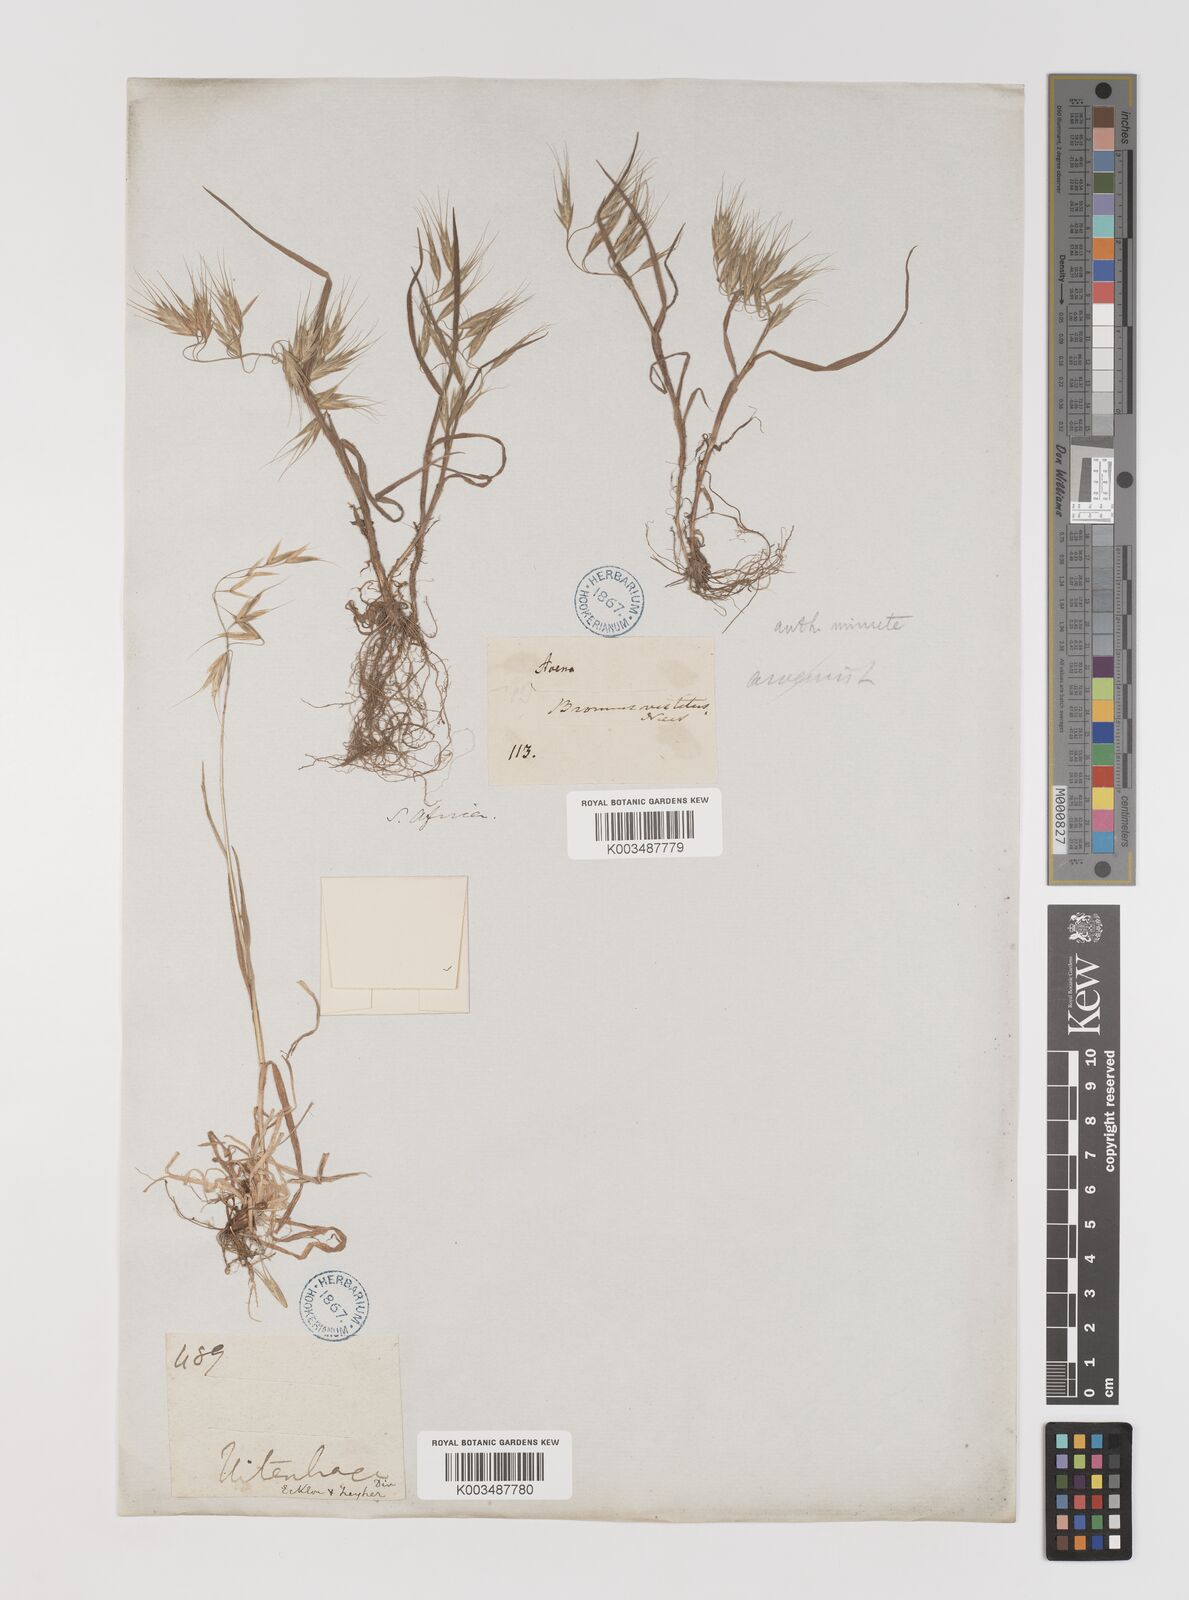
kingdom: Plantae
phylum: Tracheophyta
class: Liliopsida
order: Poales
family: Poaceae
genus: Bromus
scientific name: Bromus pectinatus
